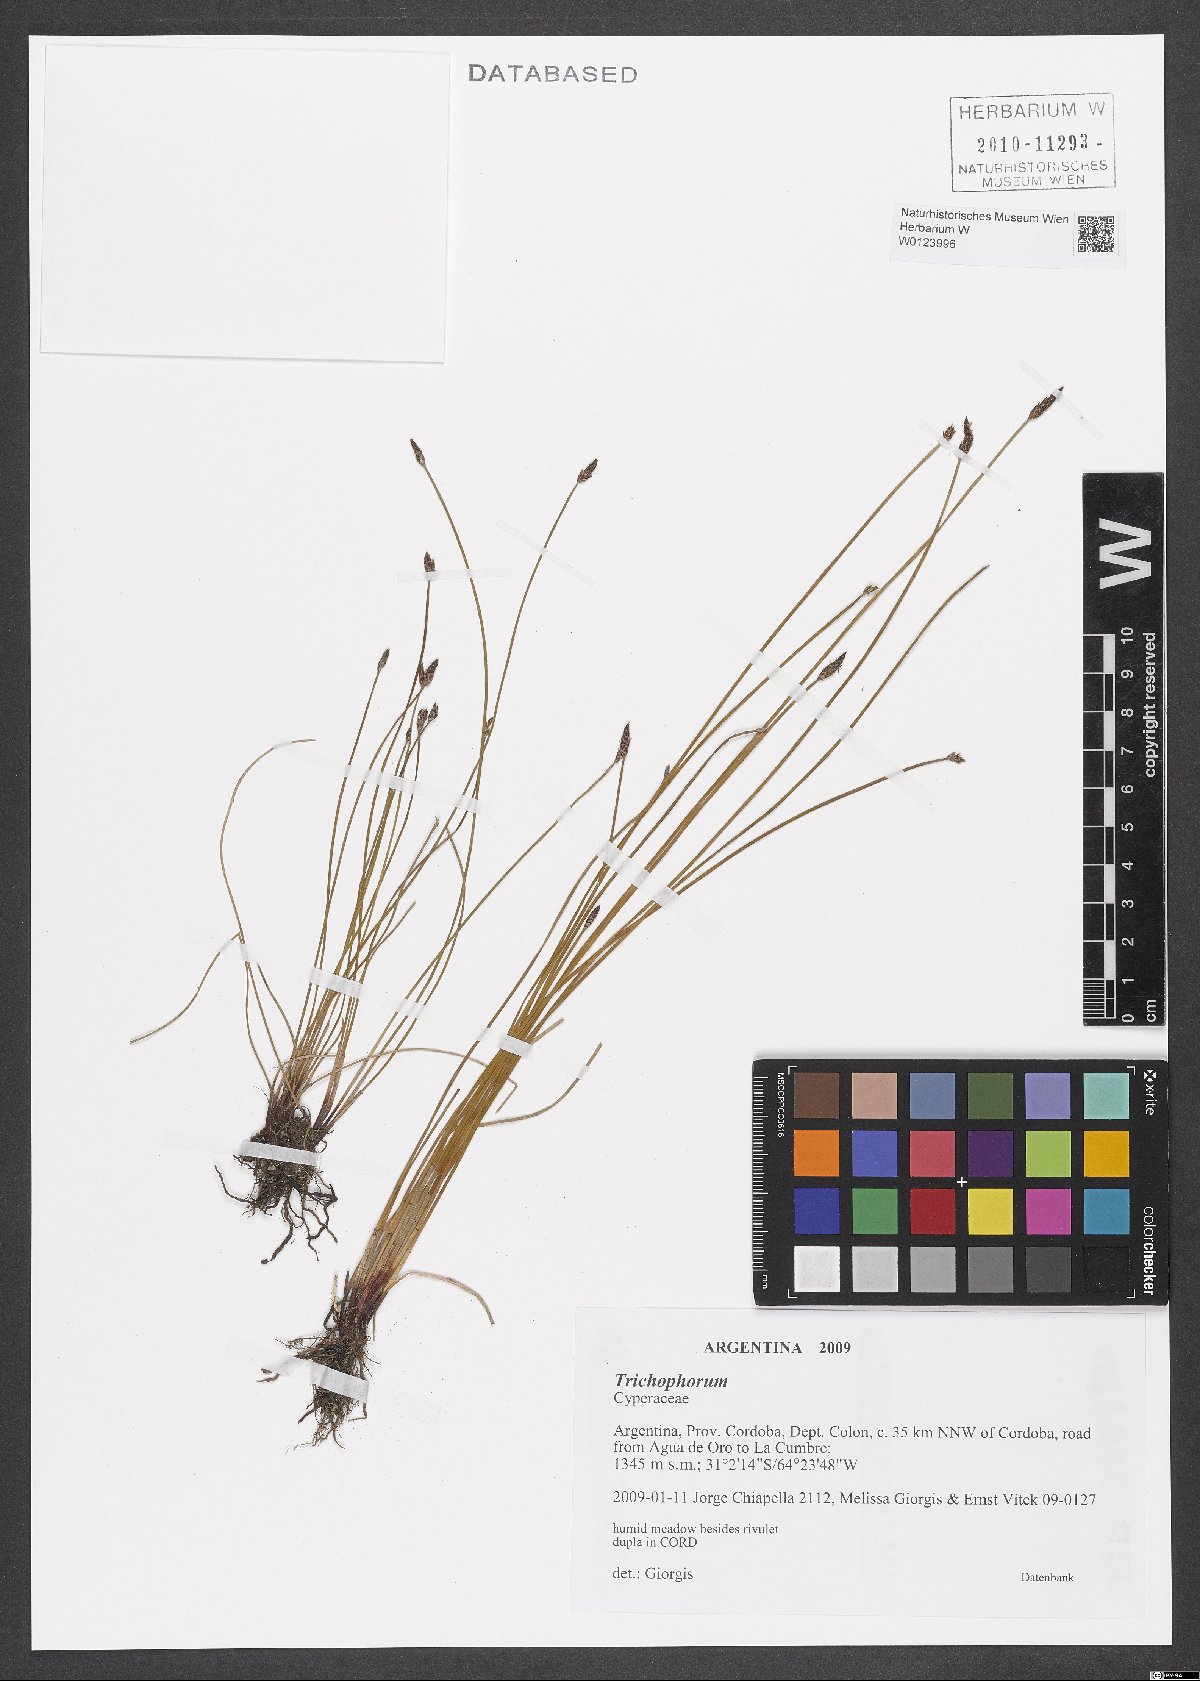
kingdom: Plantae
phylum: Tracheophyta
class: Liliopsida
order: Poales
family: Cyperaceae
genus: Trichophorum
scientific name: Trichophorum
